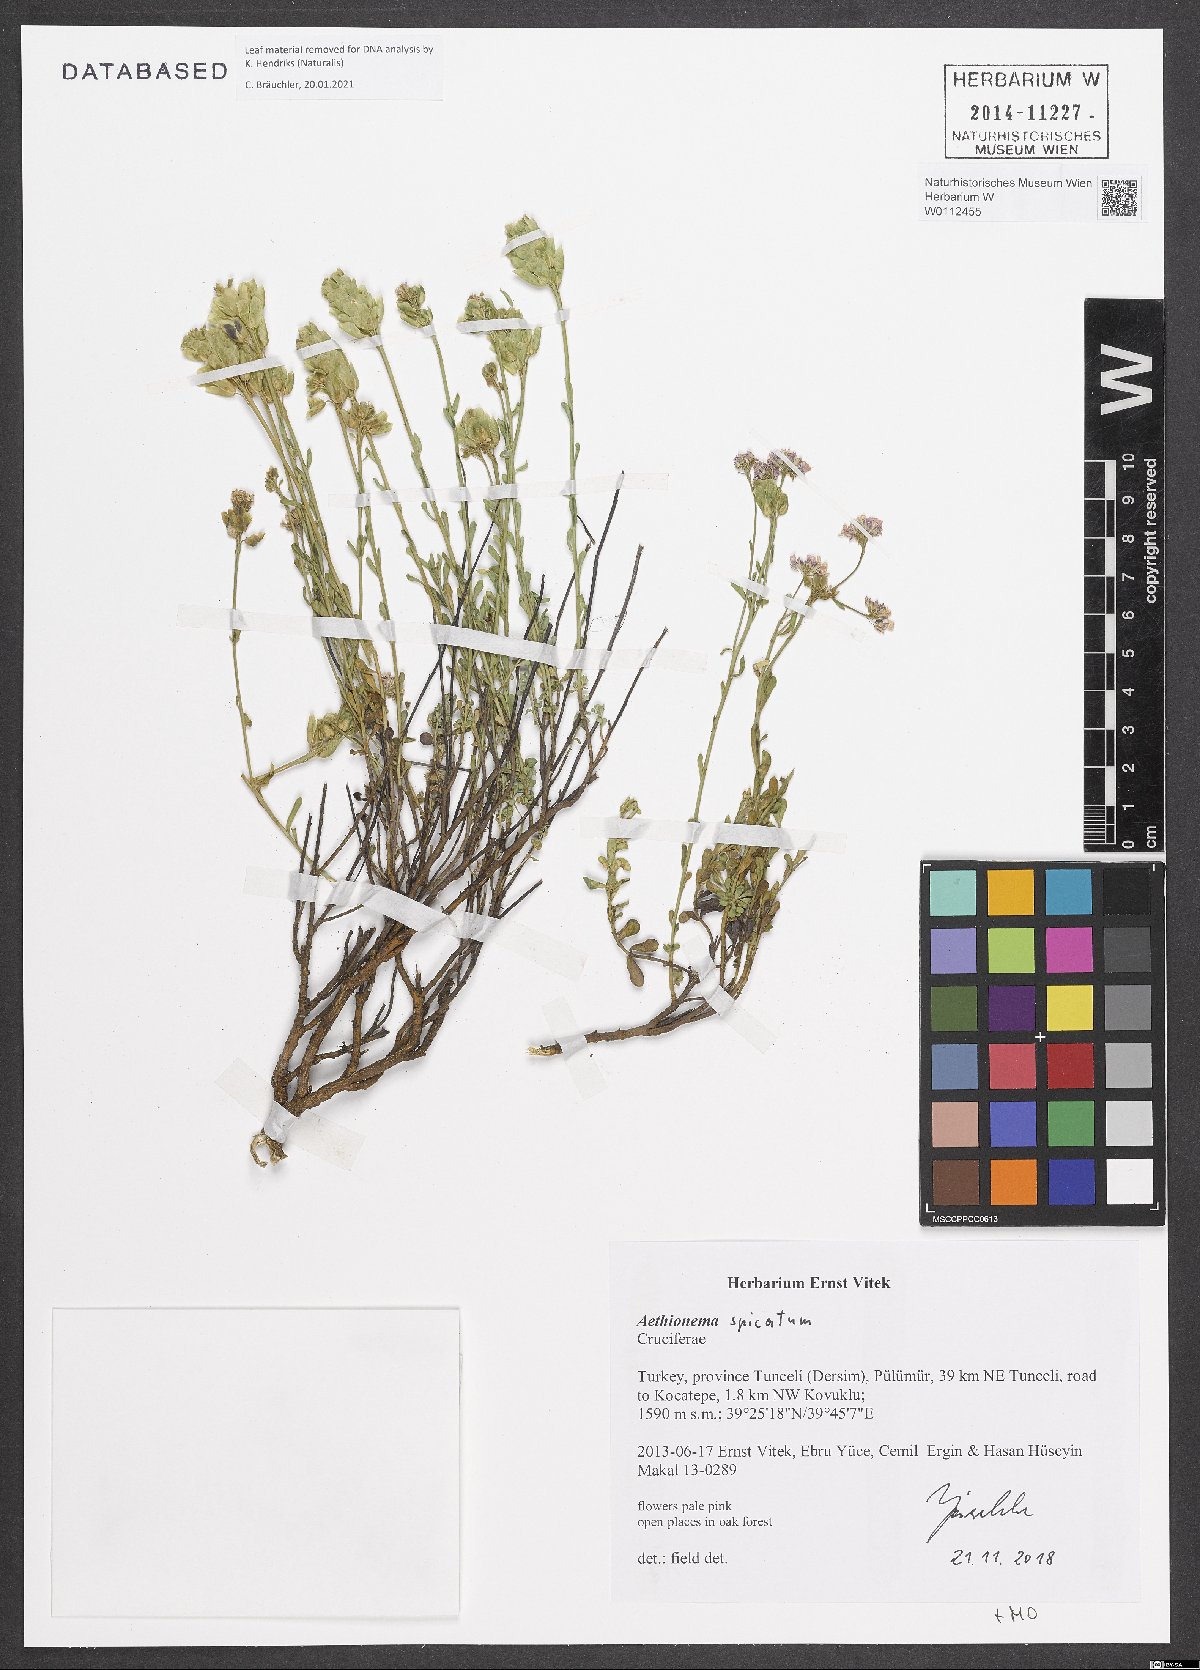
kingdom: Plantae
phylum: Tracheophyta
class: Magnoliopsida
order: Brassicales
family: Brassicaceae
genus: Aethionema
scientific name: Aethionema spicatum
